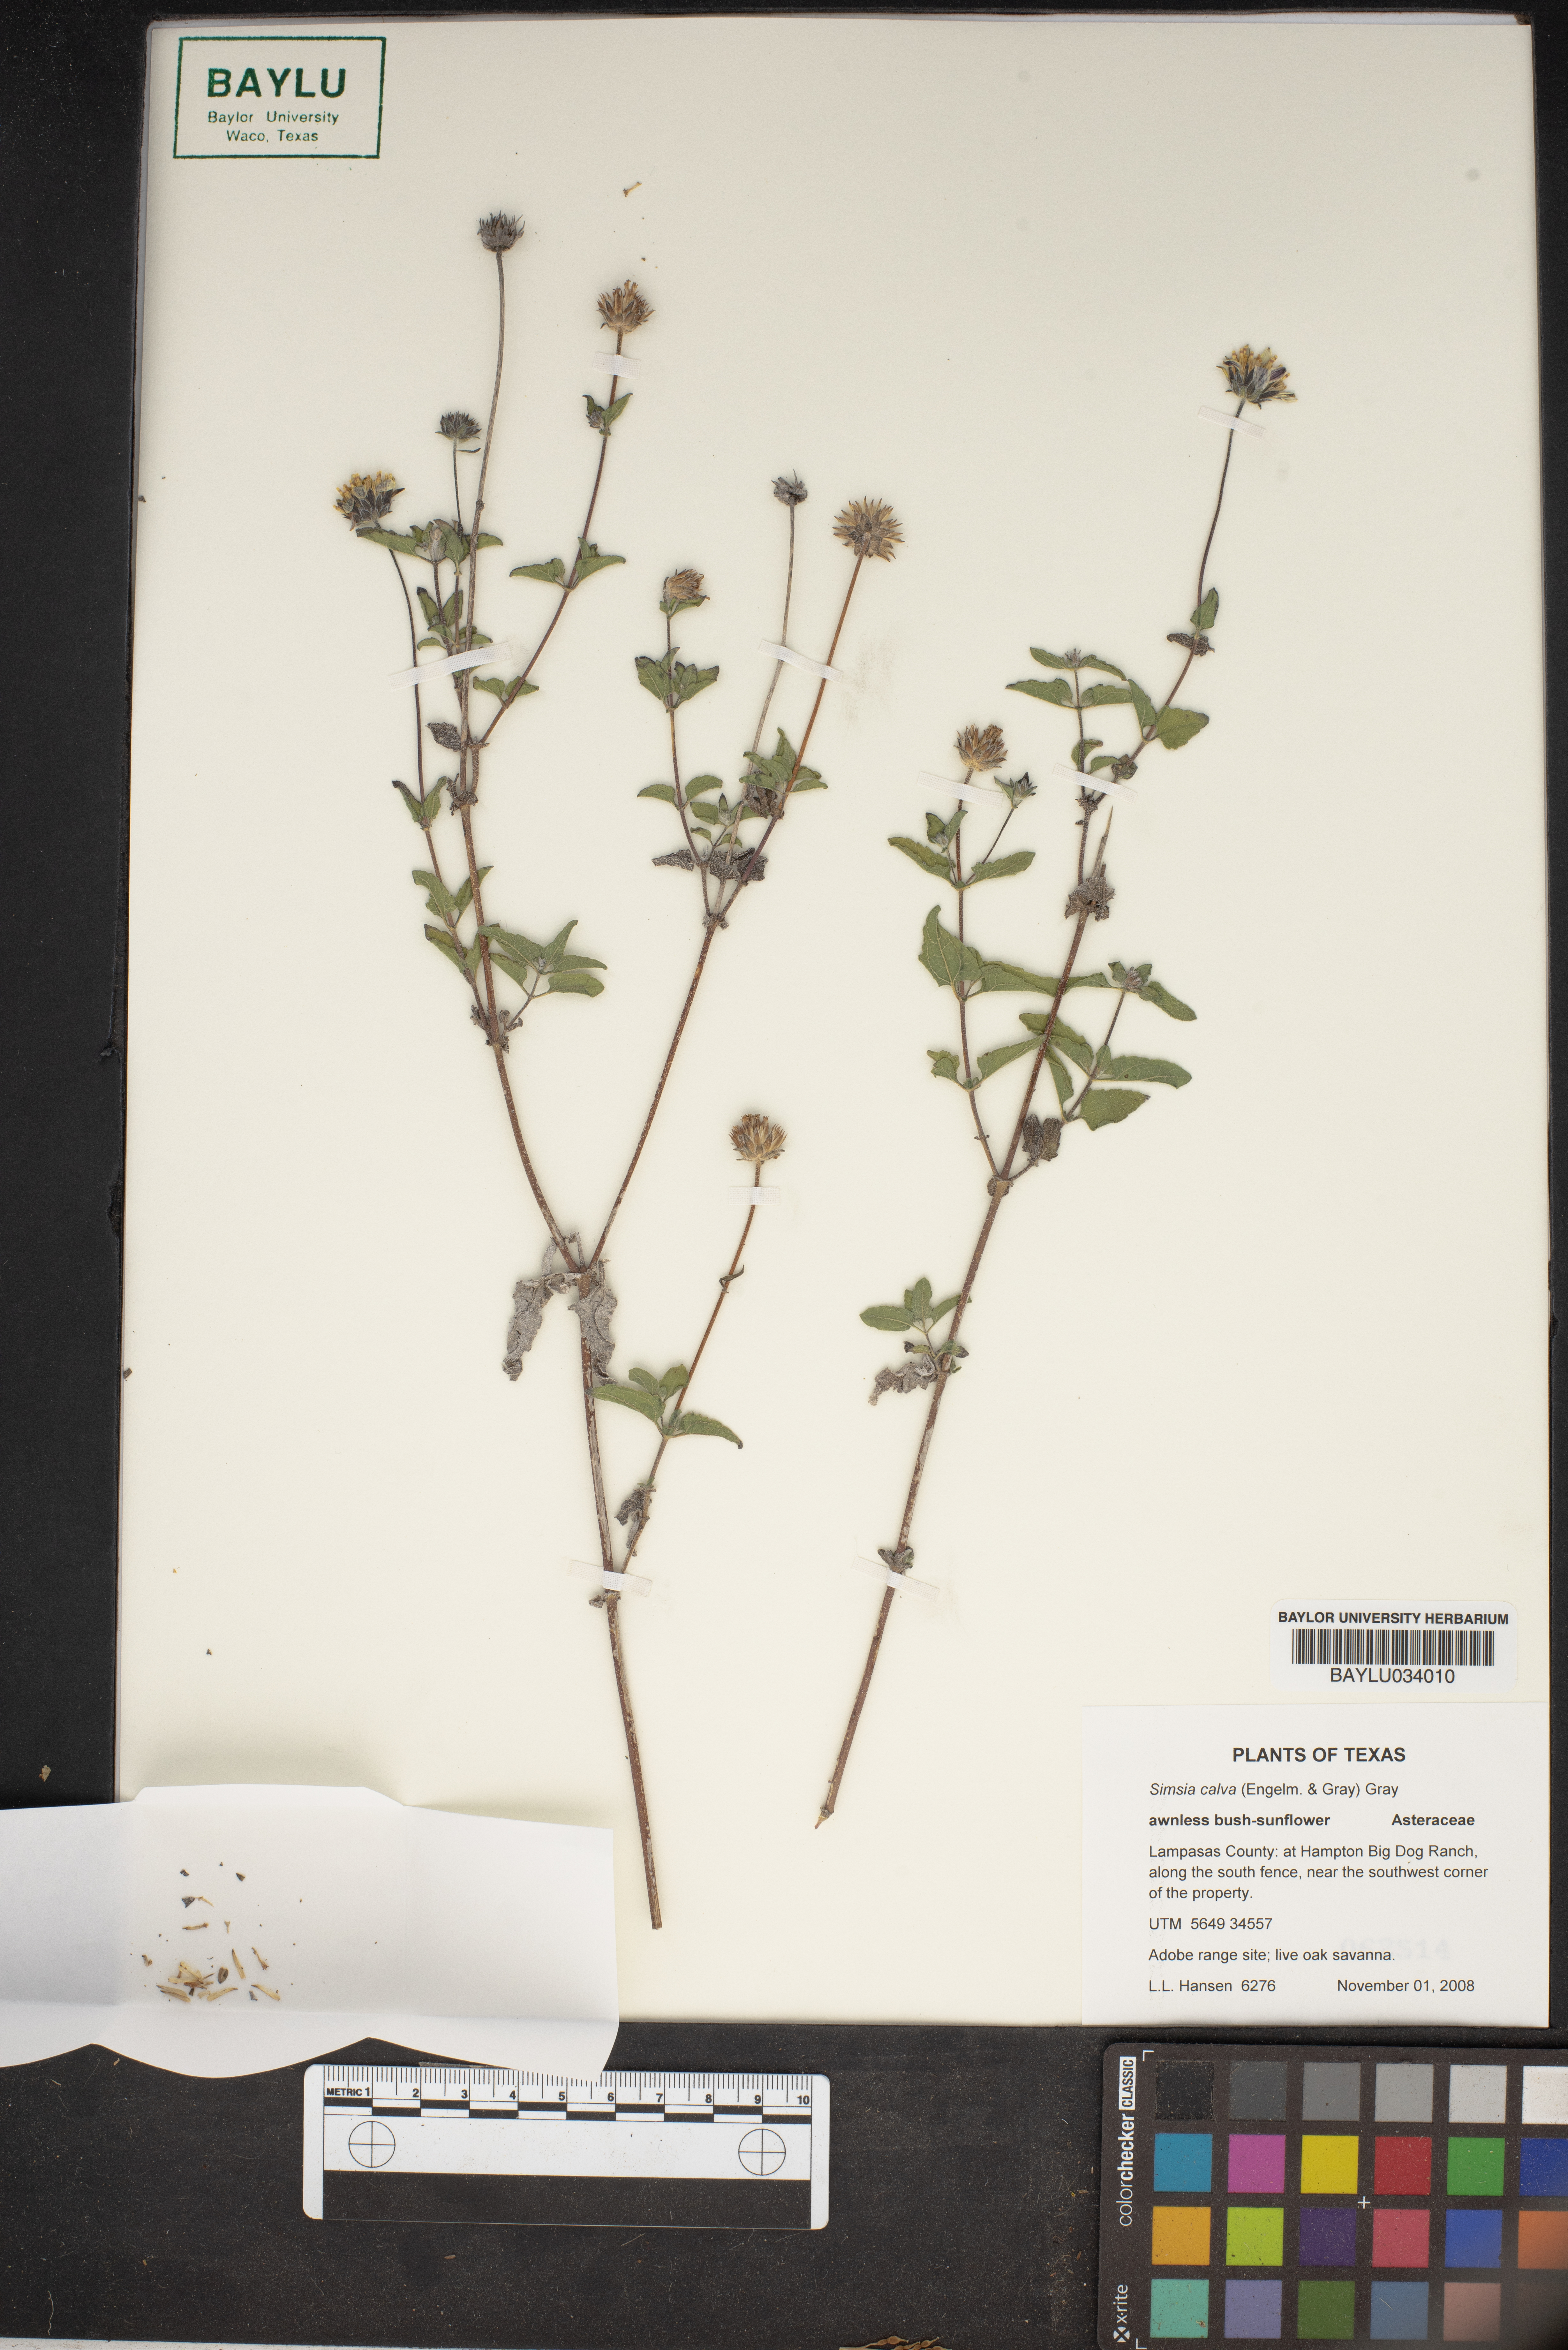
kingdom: Plantae
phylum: Tracheophyta
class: Magnoliopsida
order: Asterales
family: Asteraceae
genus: Simsia
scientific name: Simsia calva
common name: Awnless bush-sunflower
